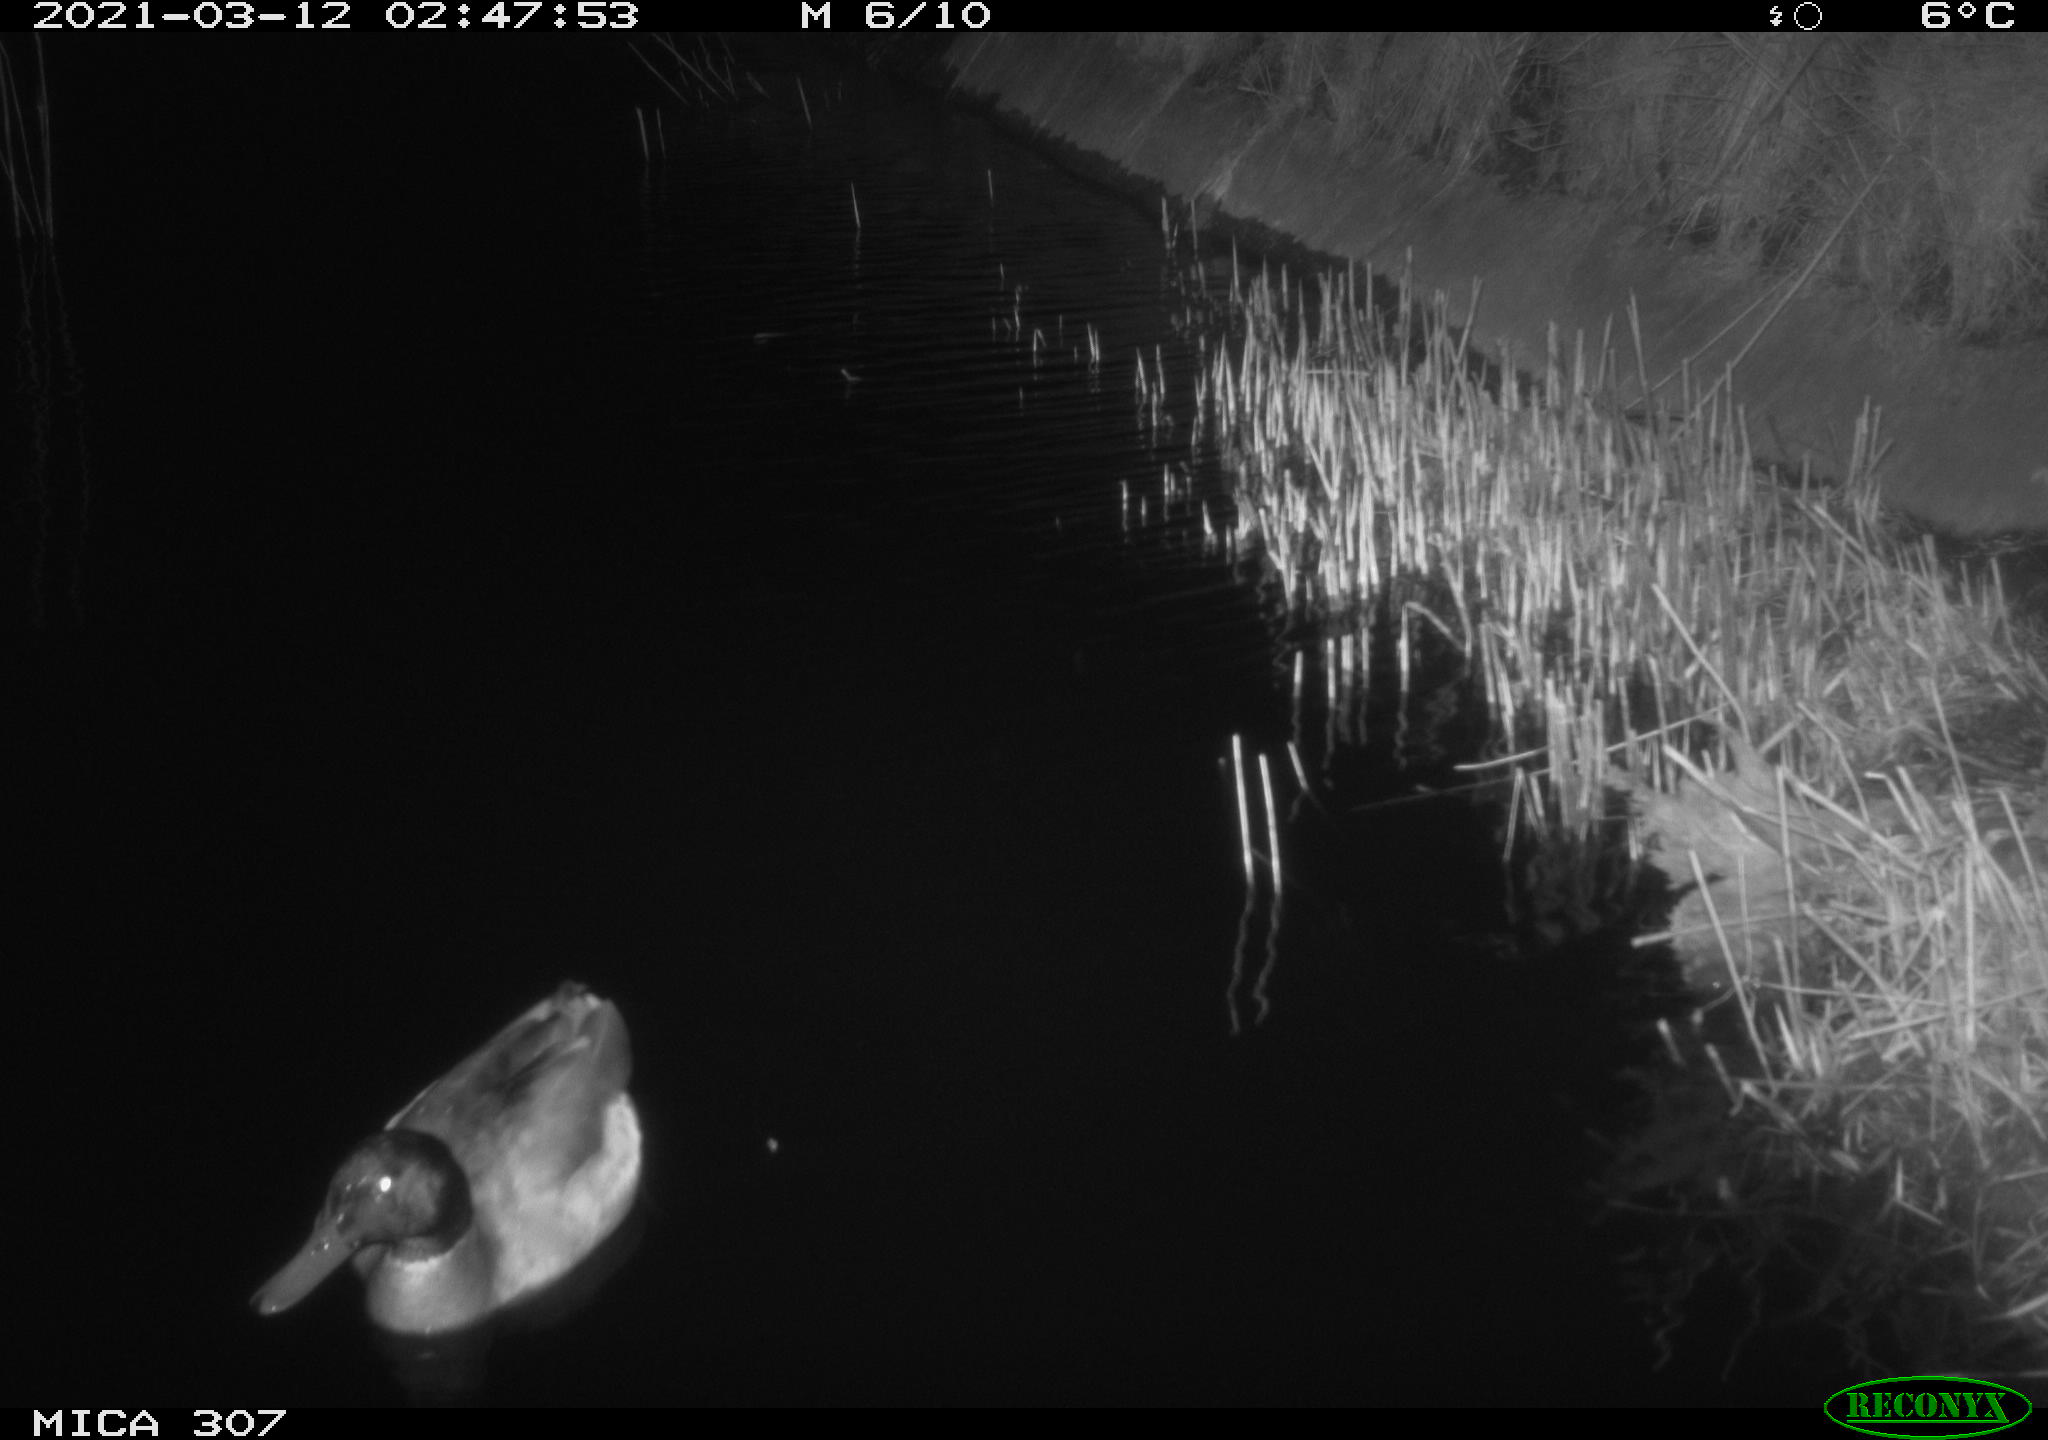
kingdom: Animalia
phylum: Chordata
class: Aves
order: Anseriformes
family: Anatidae
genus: Anas
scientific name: Anas platyrhynchos
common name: Mallard
